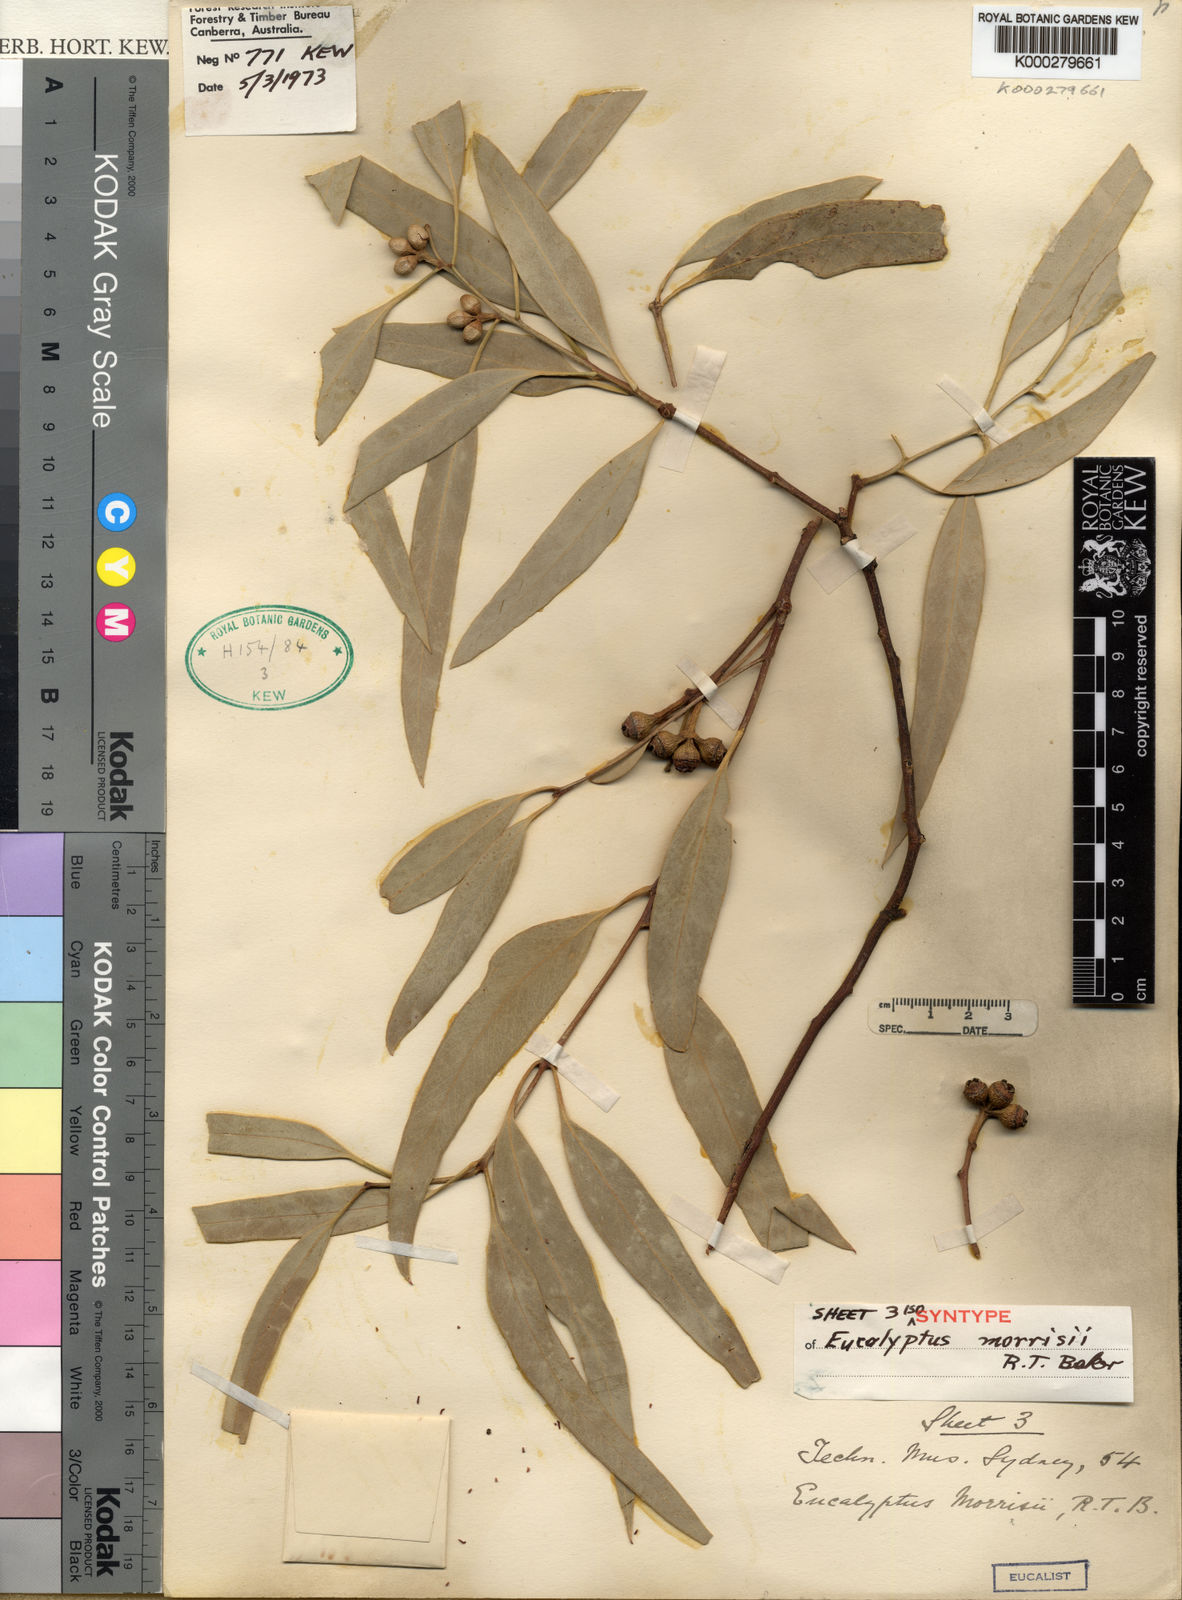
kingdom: Plantae
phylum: Tracheophyta
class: Magnoliopsida
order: Myrtales
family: Myrtaceae
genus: Eucalyptus
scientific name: Eucalyptus morrisii
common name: Grey mallee
